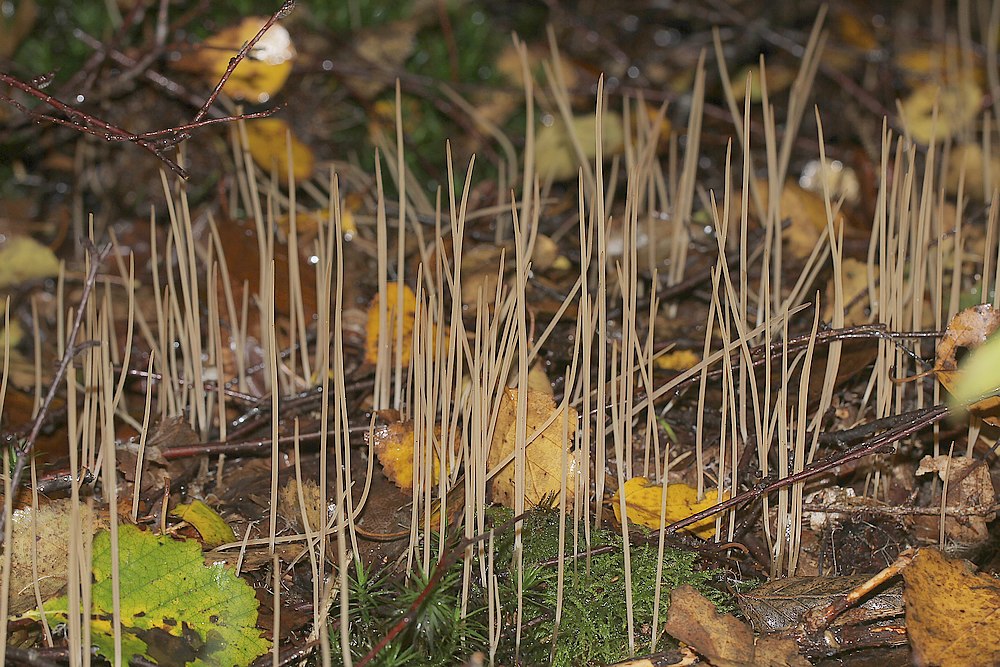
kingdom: Fungi
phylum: Basidiomycota
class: Agaricomycetes
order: Agaricales
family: Typhulaceae
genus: Typhula
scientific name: Typhula juncea
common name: trådagtig rørkølle
